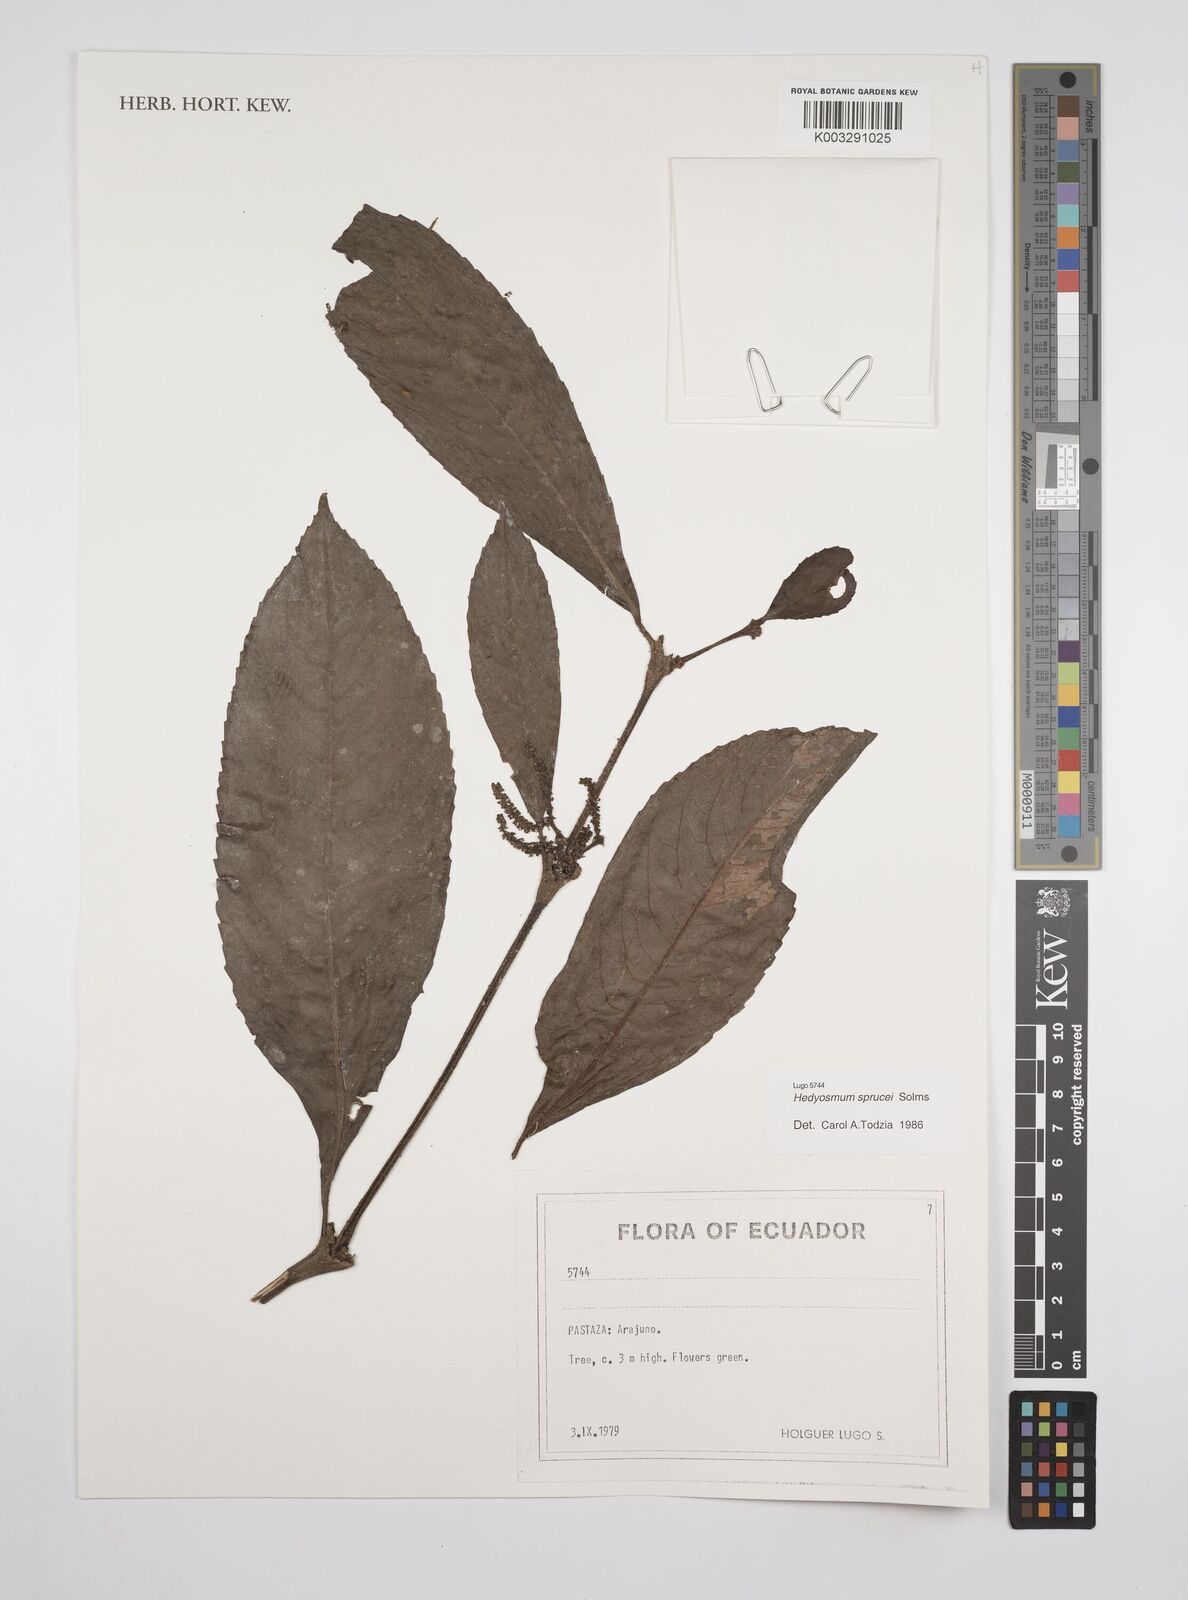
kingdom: Plantae
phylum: Tracheophyta
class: Magnoliopsida
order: Chloranthales
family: Chloranthaceae
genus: Hedyosmum
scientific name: Hedyosmum sprucei
